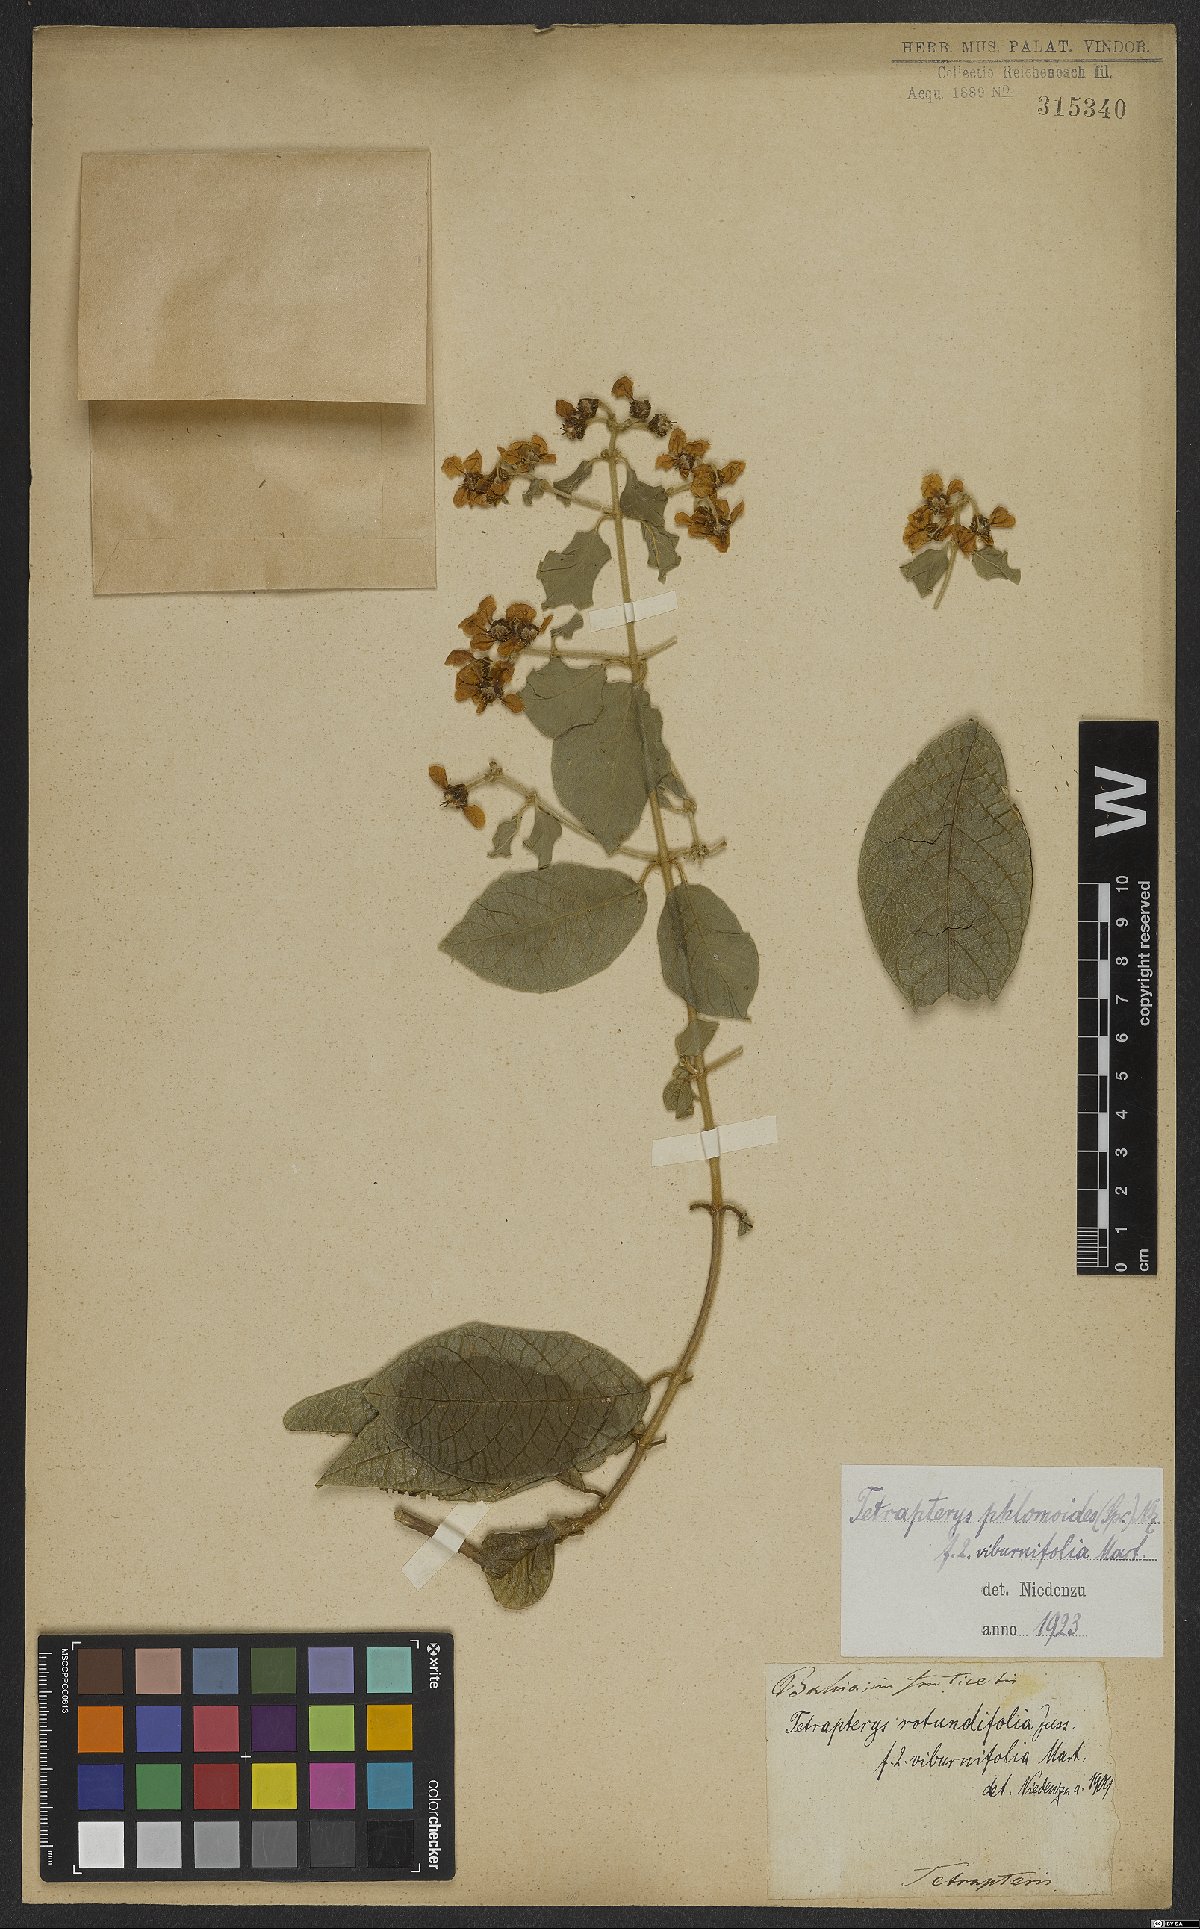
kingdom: Plantae
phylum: Tracheophyta
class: Magnoliopsida
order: Malpighiales
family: Malpighiaceae
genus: Tetrapterys
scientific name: Tetrapterys phlomoides
